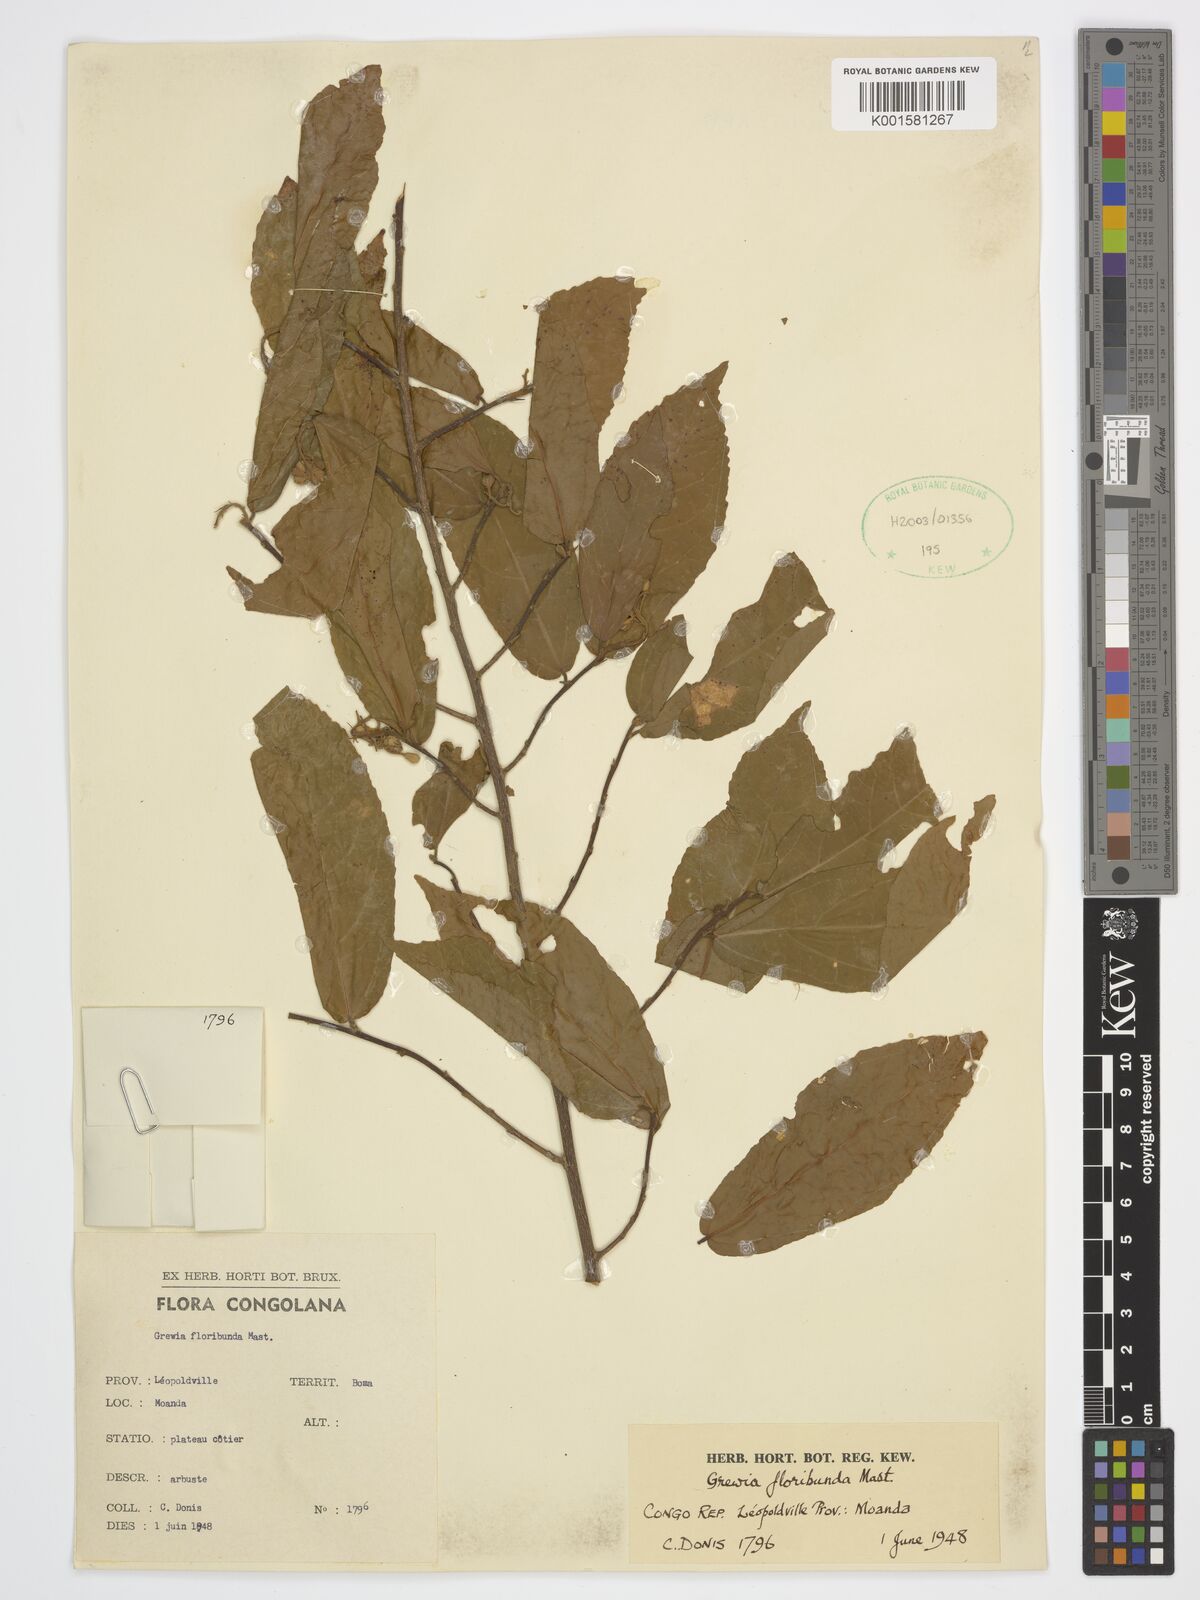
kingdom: Plantae
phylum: Tracheophyta
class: Magnoliopsida
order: Malvales
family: Malvaceae
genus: Microcos
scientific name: Microcos floribunda
